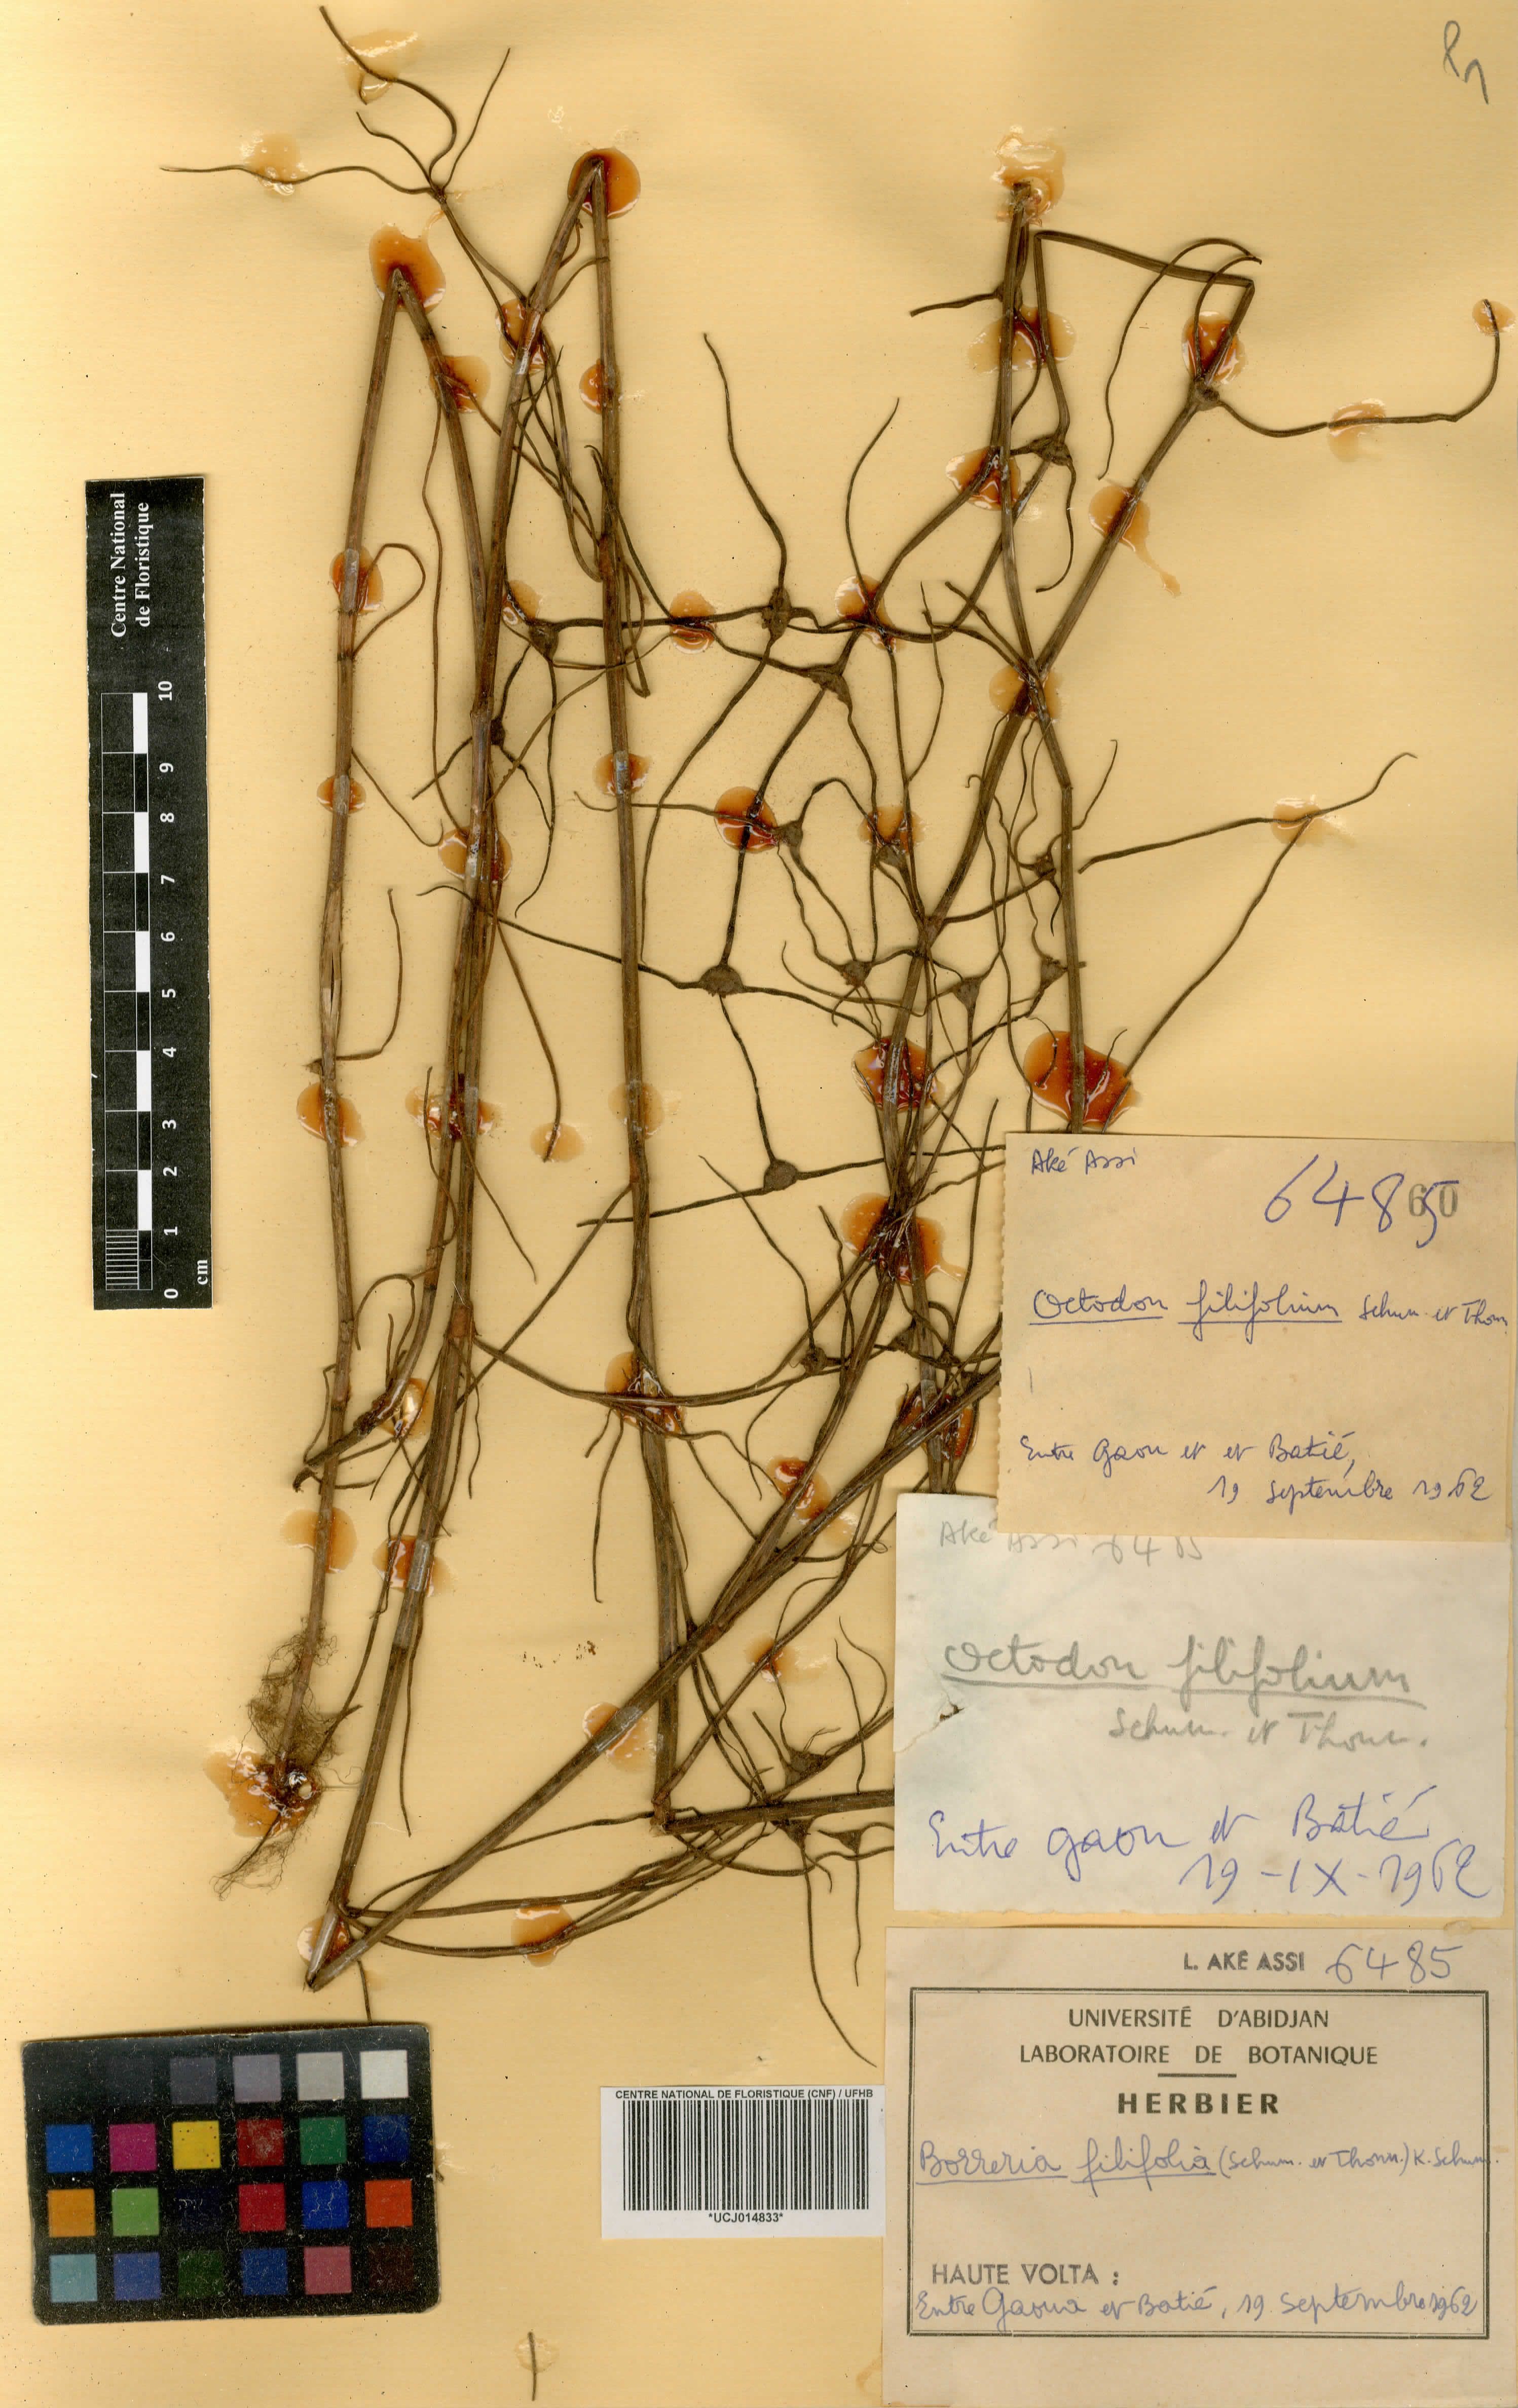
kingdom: Plantae
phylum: Tracheophyta
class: Magnoliopsida
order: Gentianales
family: Rubiaceae
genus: Spermacoce
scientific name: Spermacoce filifolia
